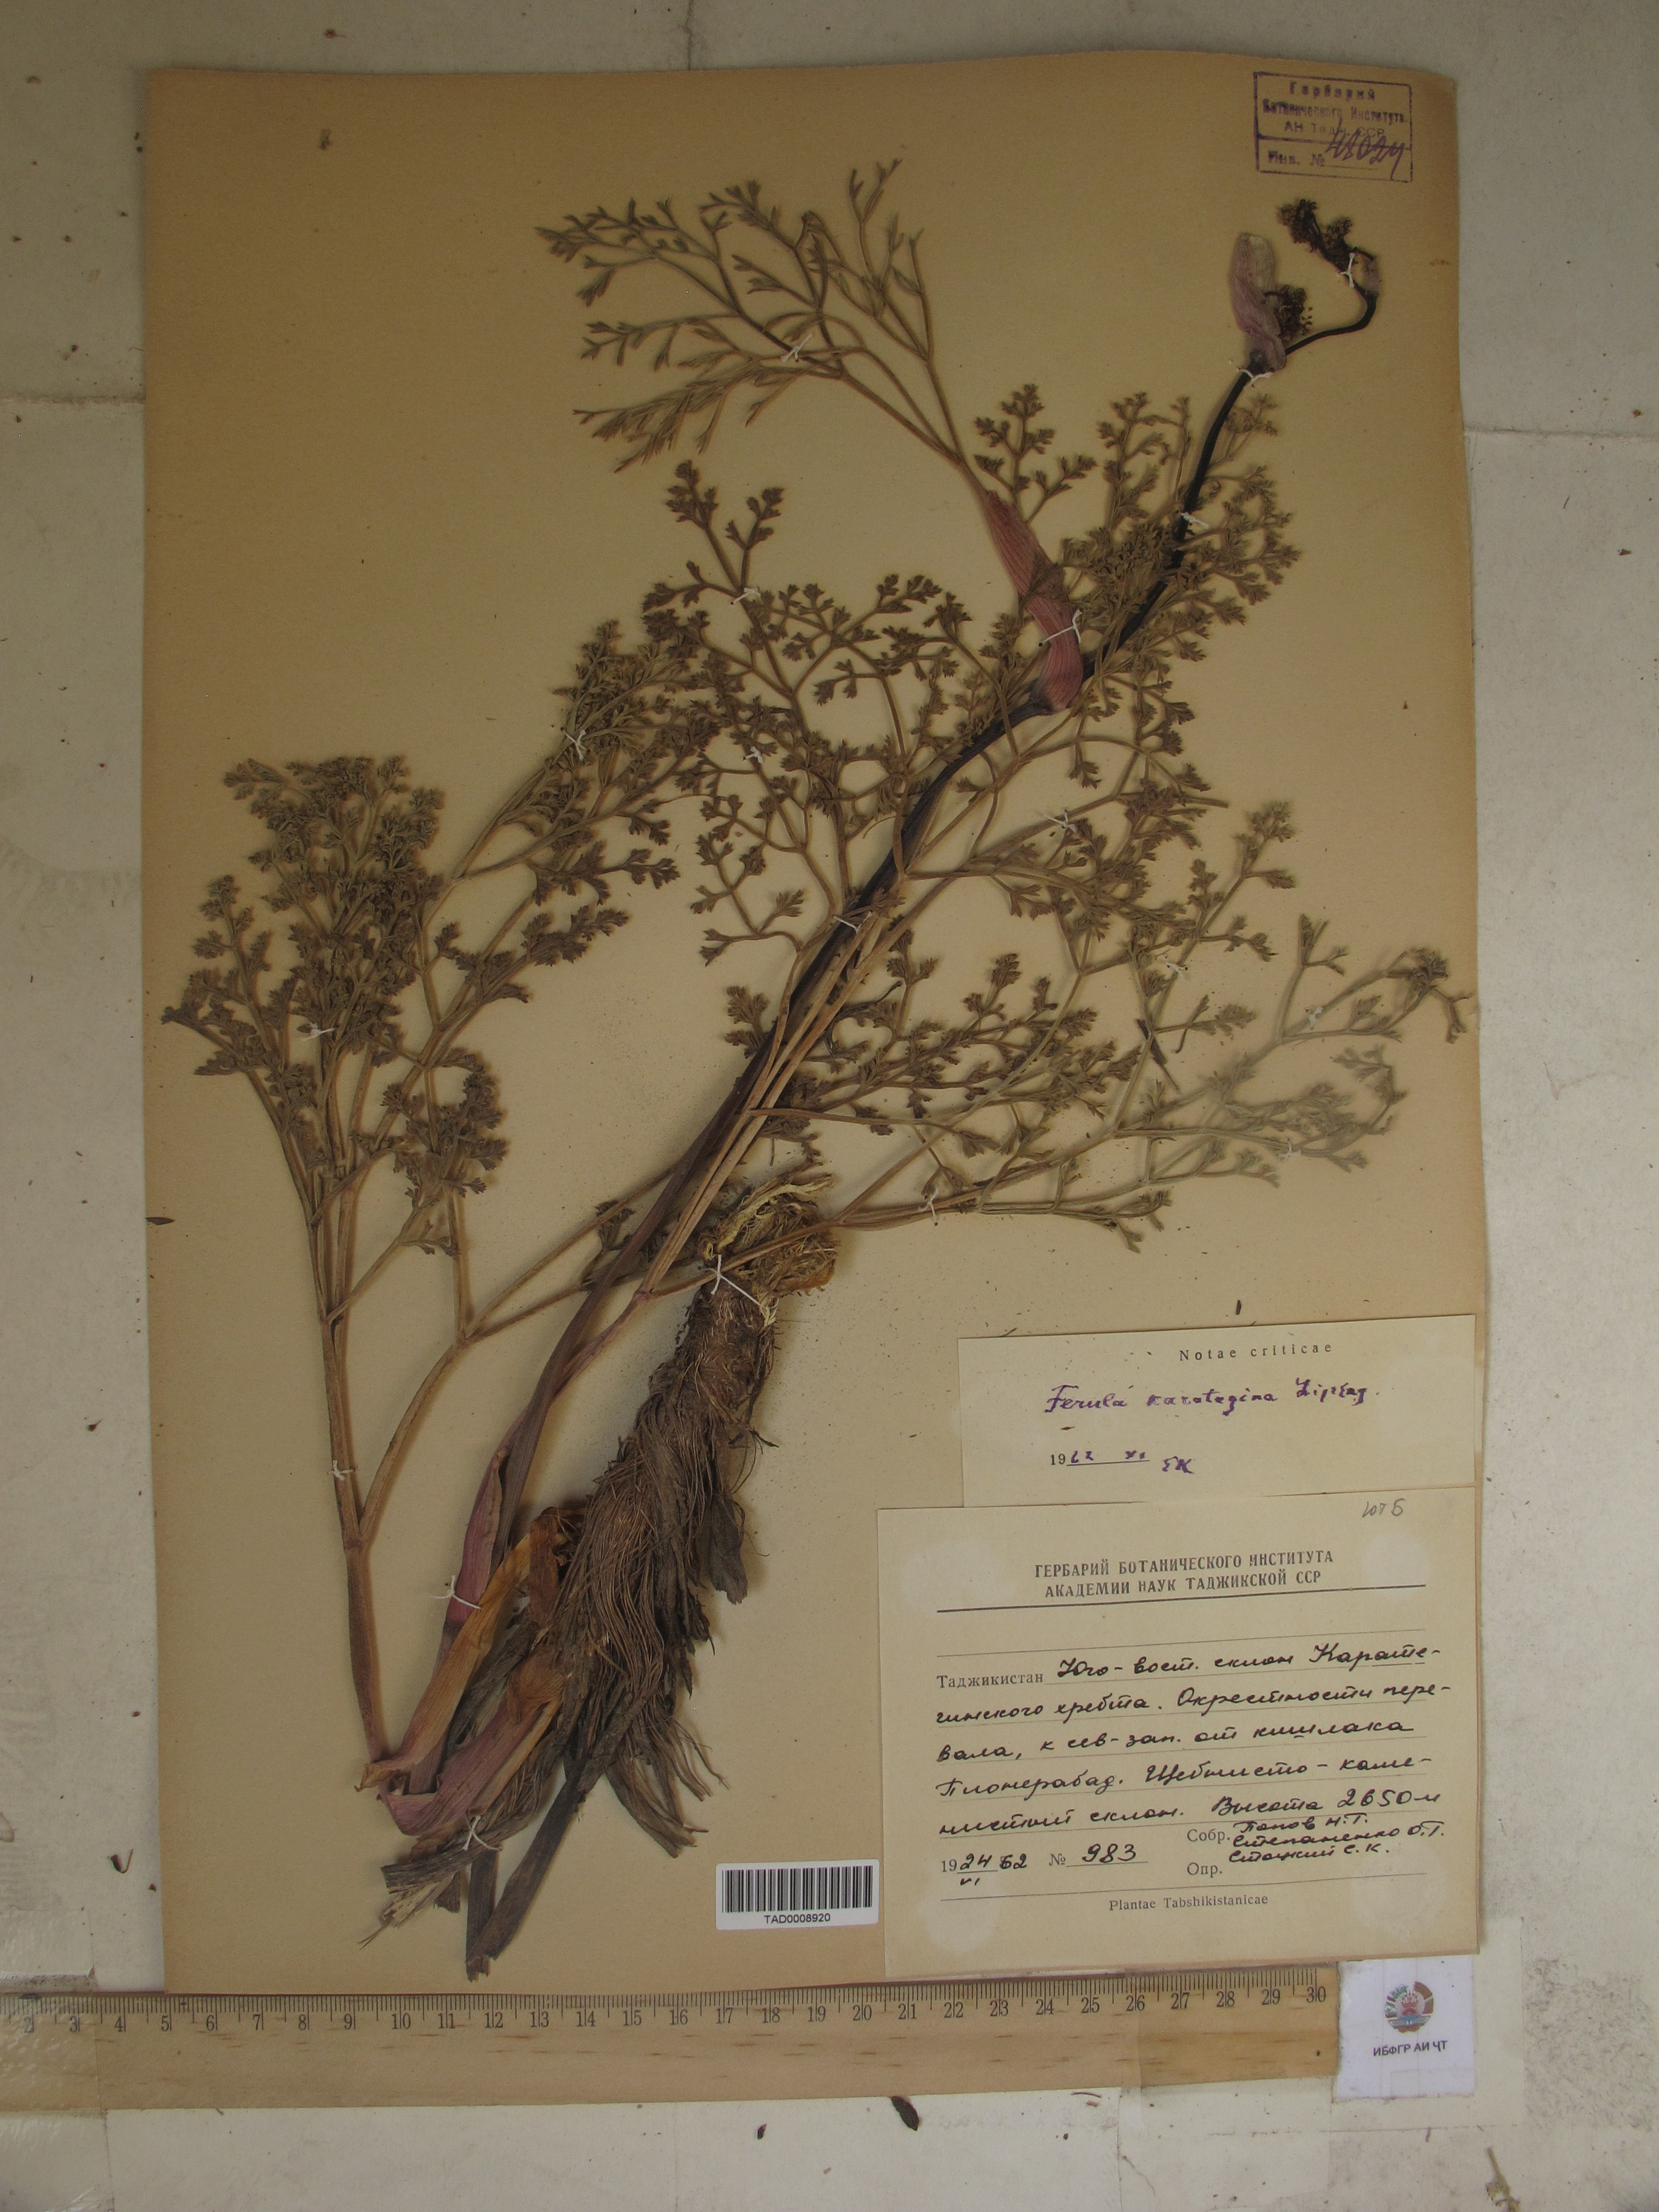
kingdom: Plantae
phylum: Tracheophyta
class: Magnoliopsida
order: Apiales
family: Apiaceae
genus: Ferula
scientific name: Ferula karategina
